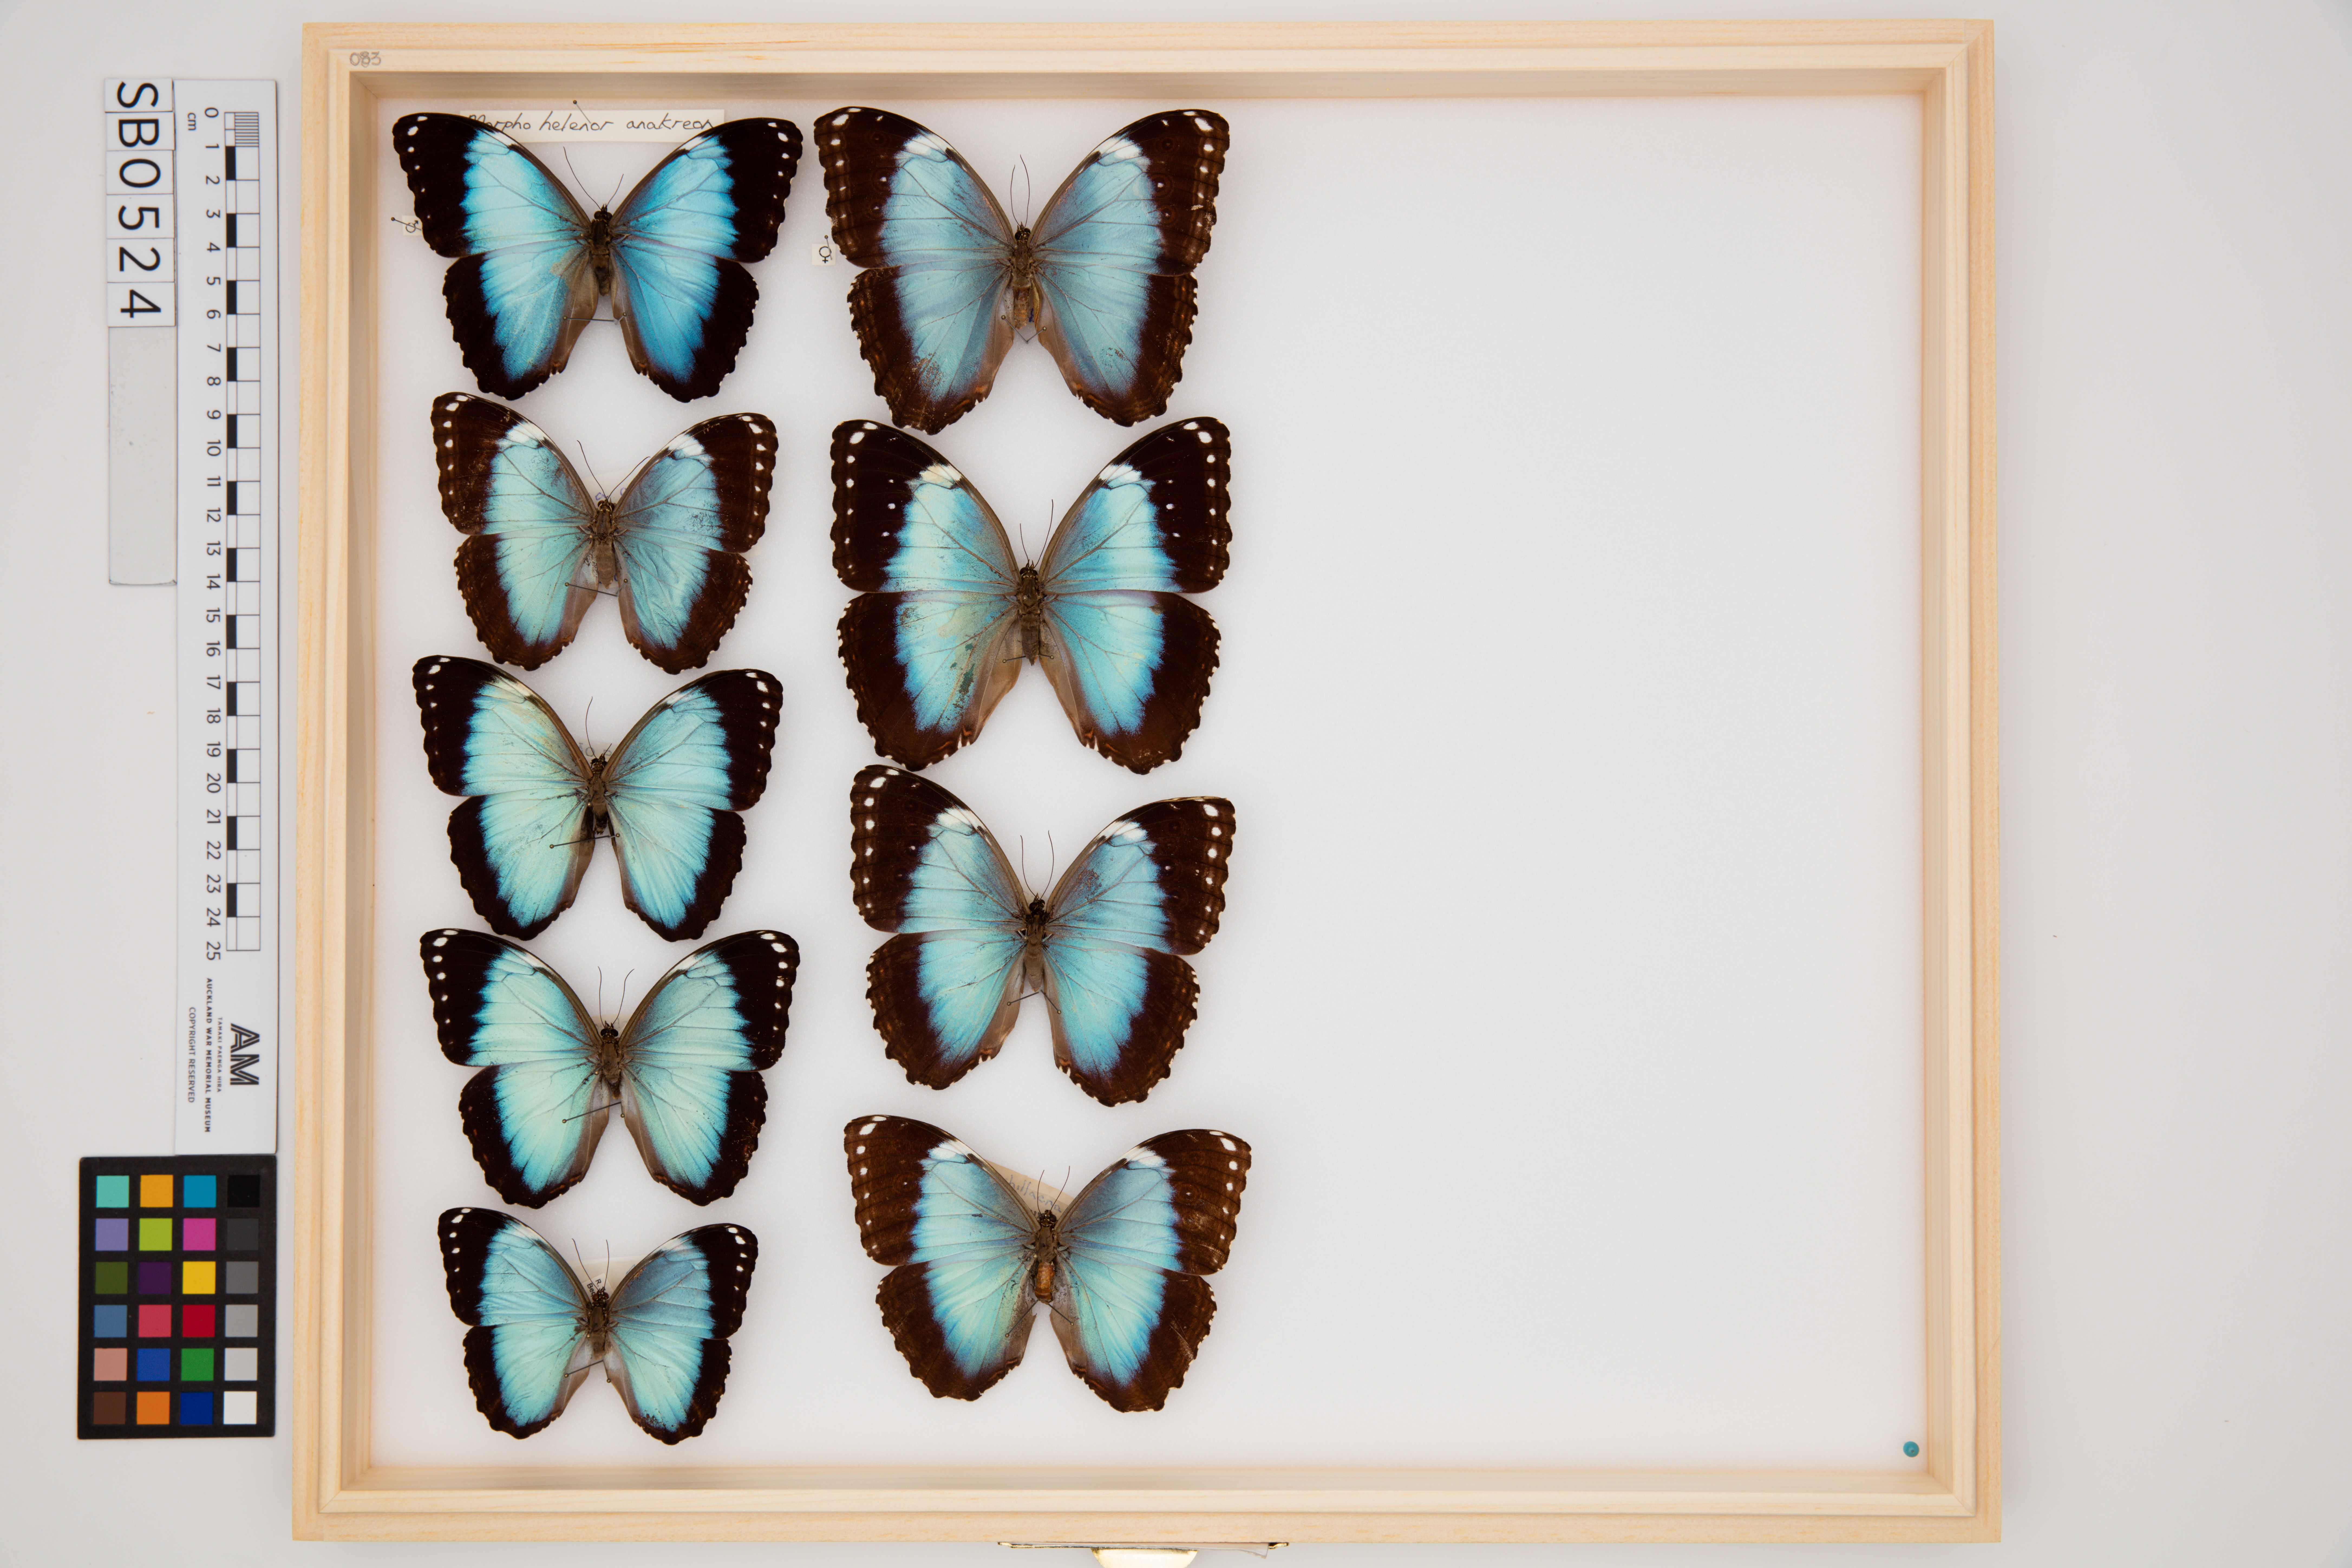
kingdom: Animalia
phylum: Arthropoda
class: Insecta
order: Lepidoptera
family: Nymphalidae
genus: Morpho
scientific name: Morpho helenor
